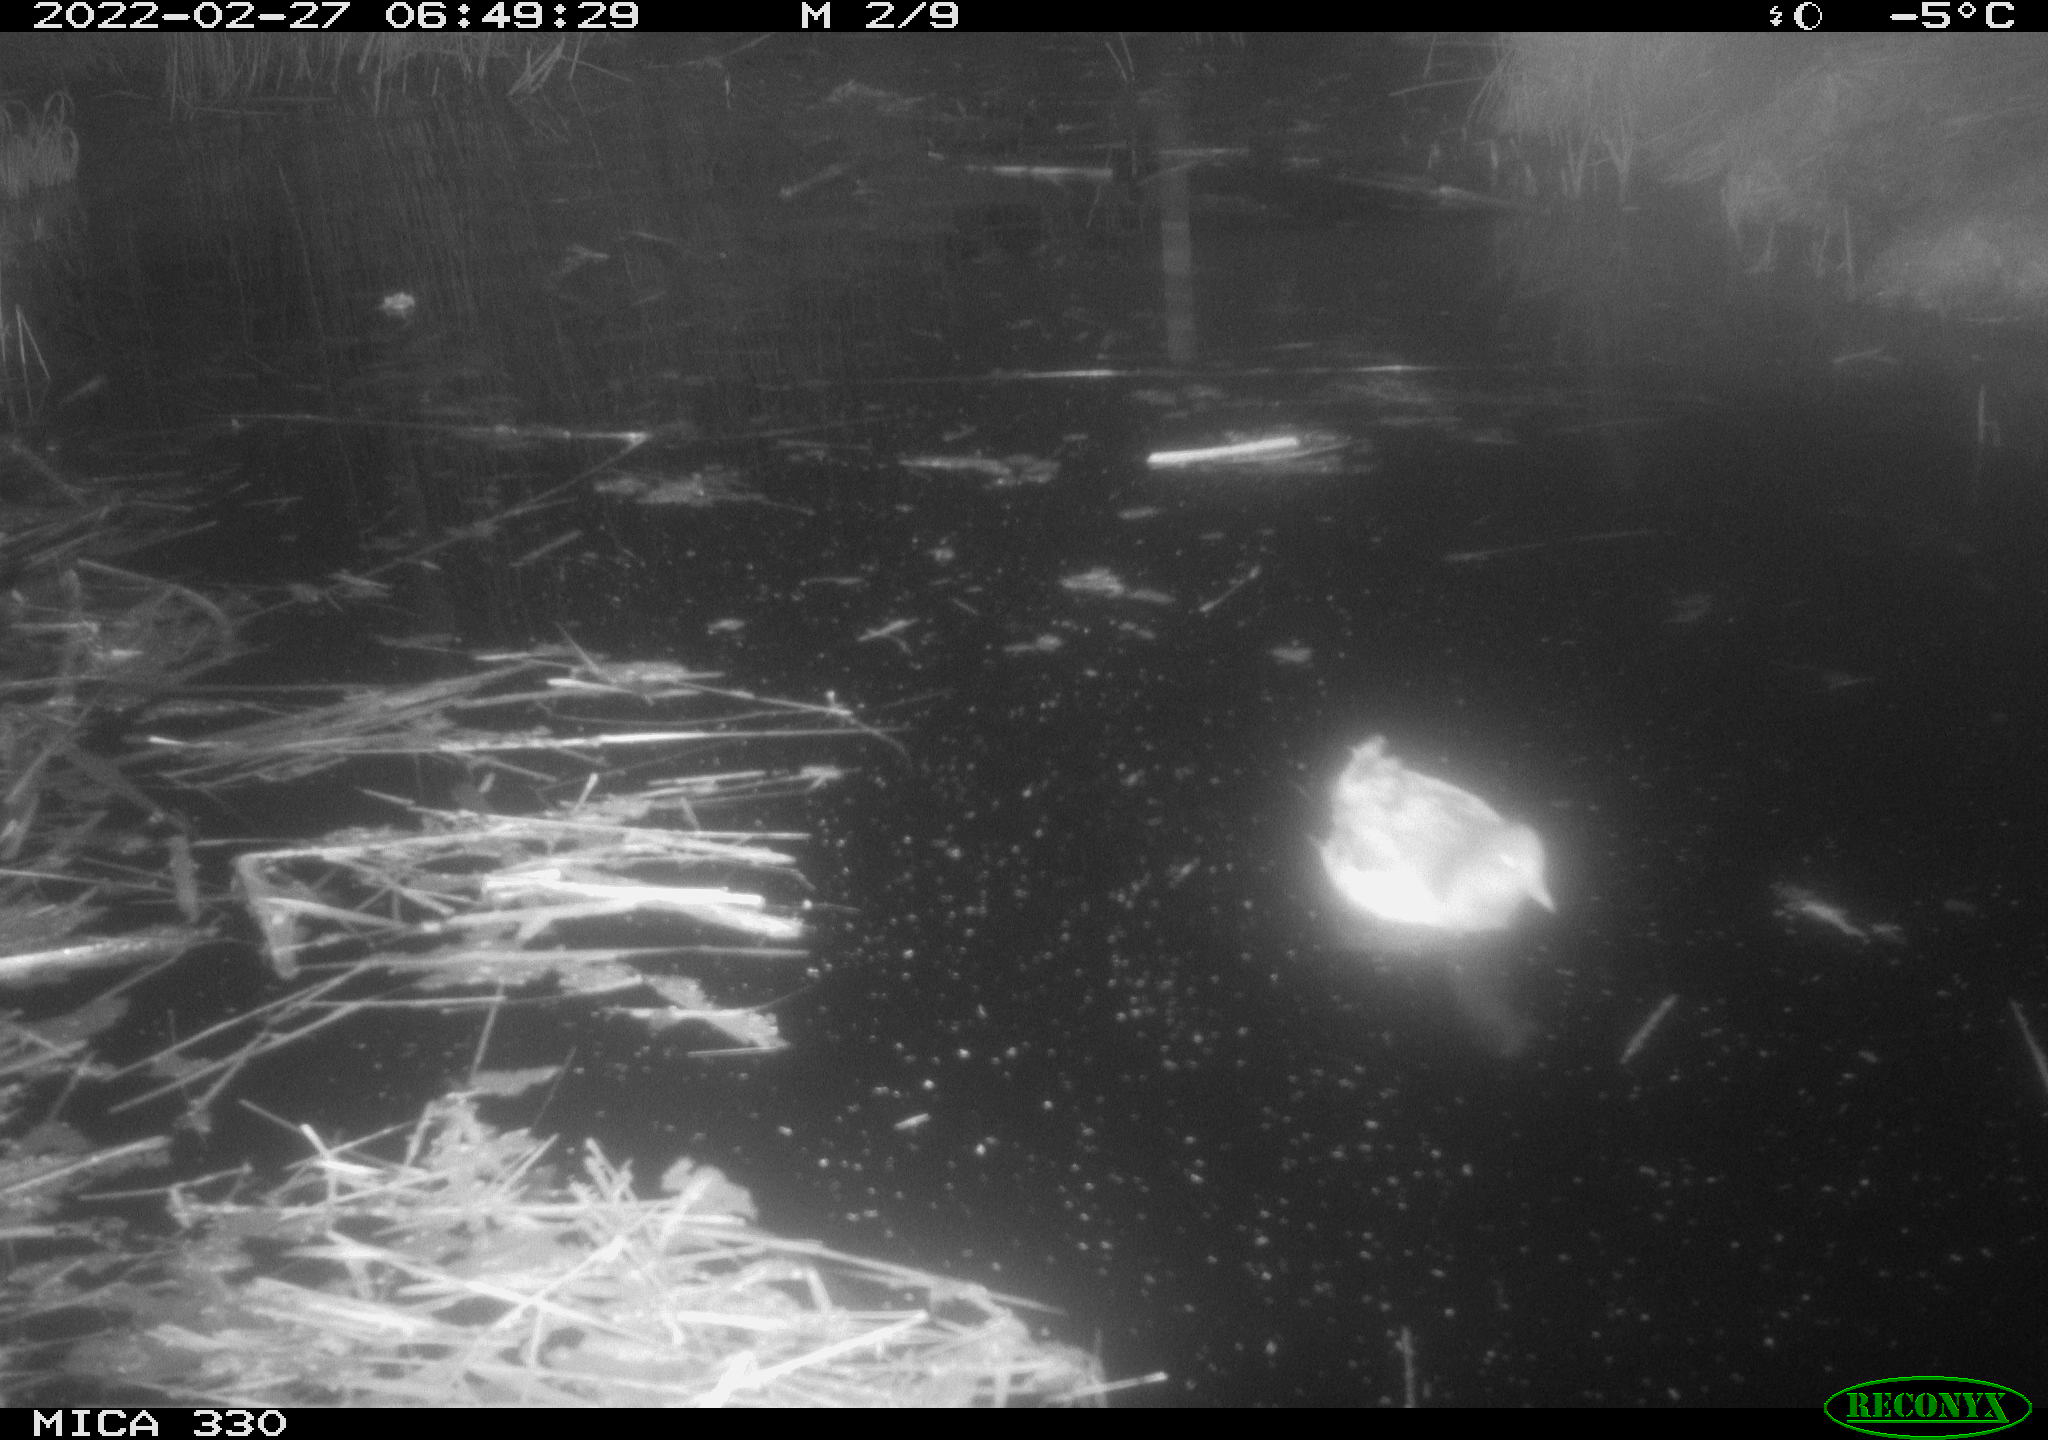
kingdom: Animalia
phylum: Chordata
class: Aves
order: Gruiformes
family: Rallidae
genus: Gallinula
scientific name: Gallinula chloropus
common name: Common moorhen
